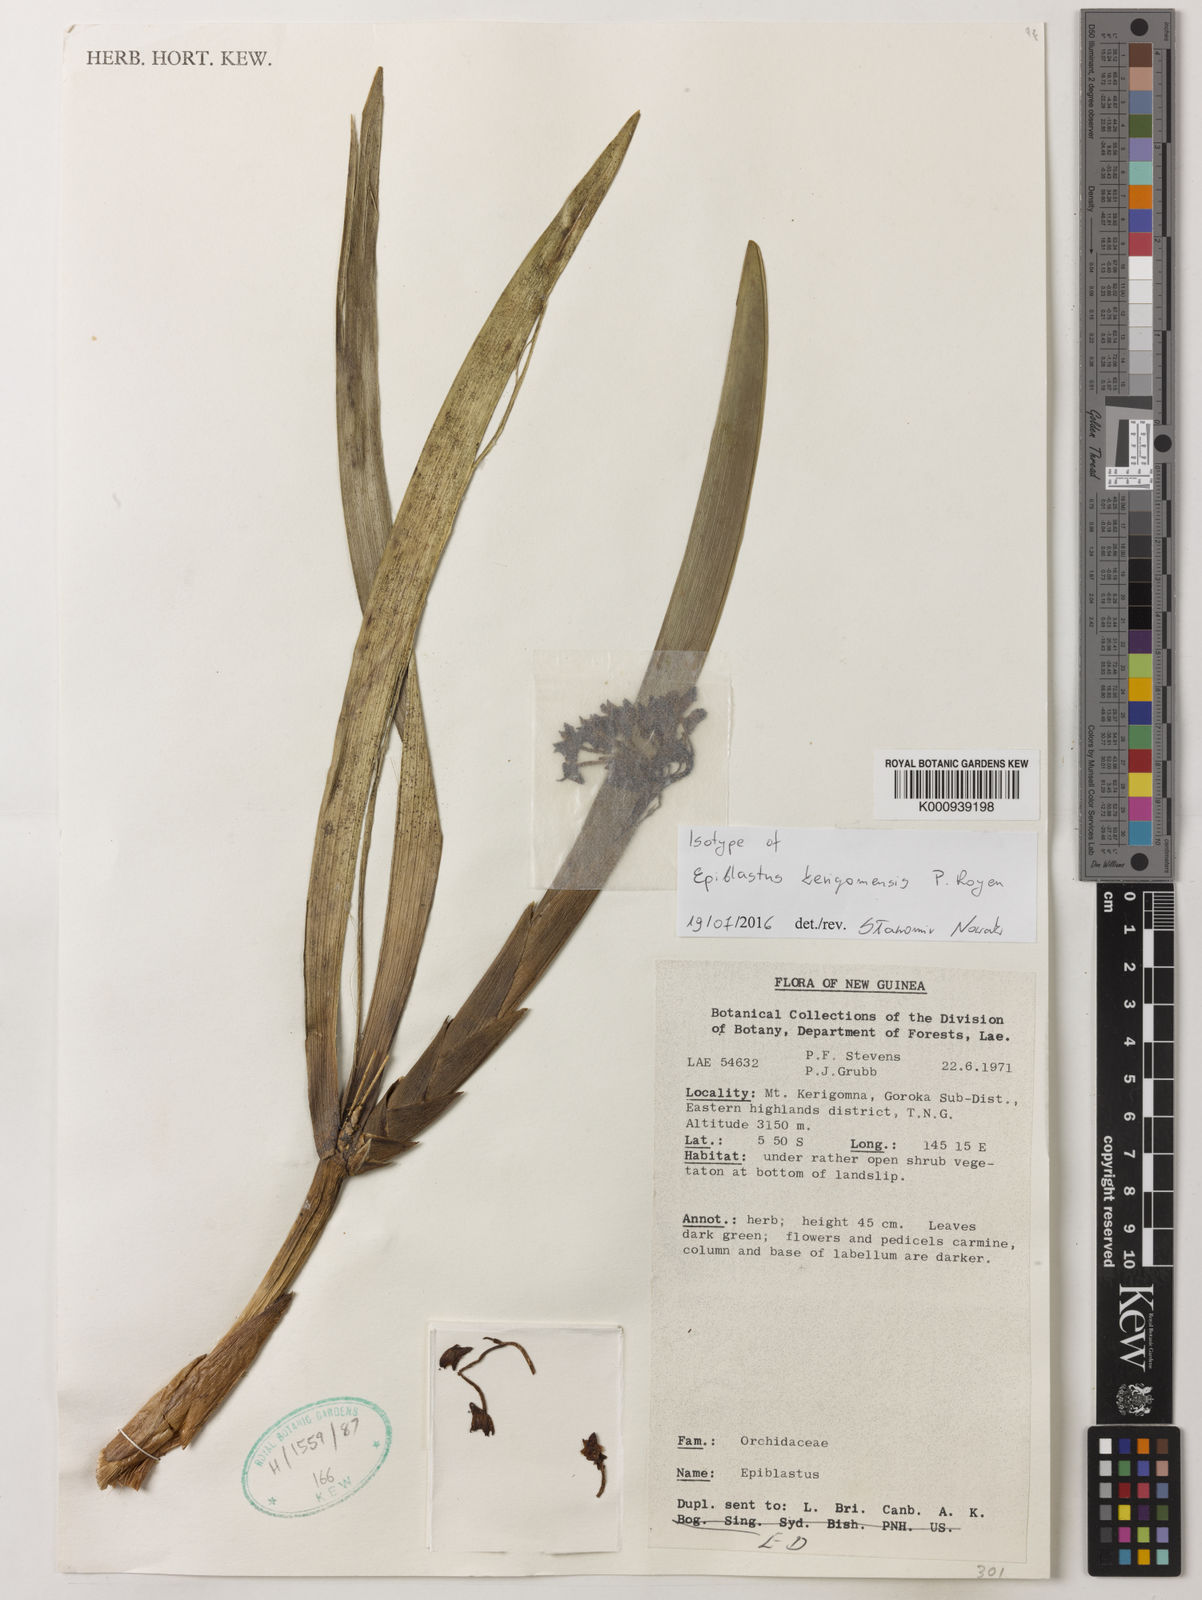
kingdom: Plantae
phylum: Tracheophyta
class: Liliopsida
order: Asparagales
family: Orchidaceae
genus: Epiblastus
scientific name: Epiblastus kerigomnensis
